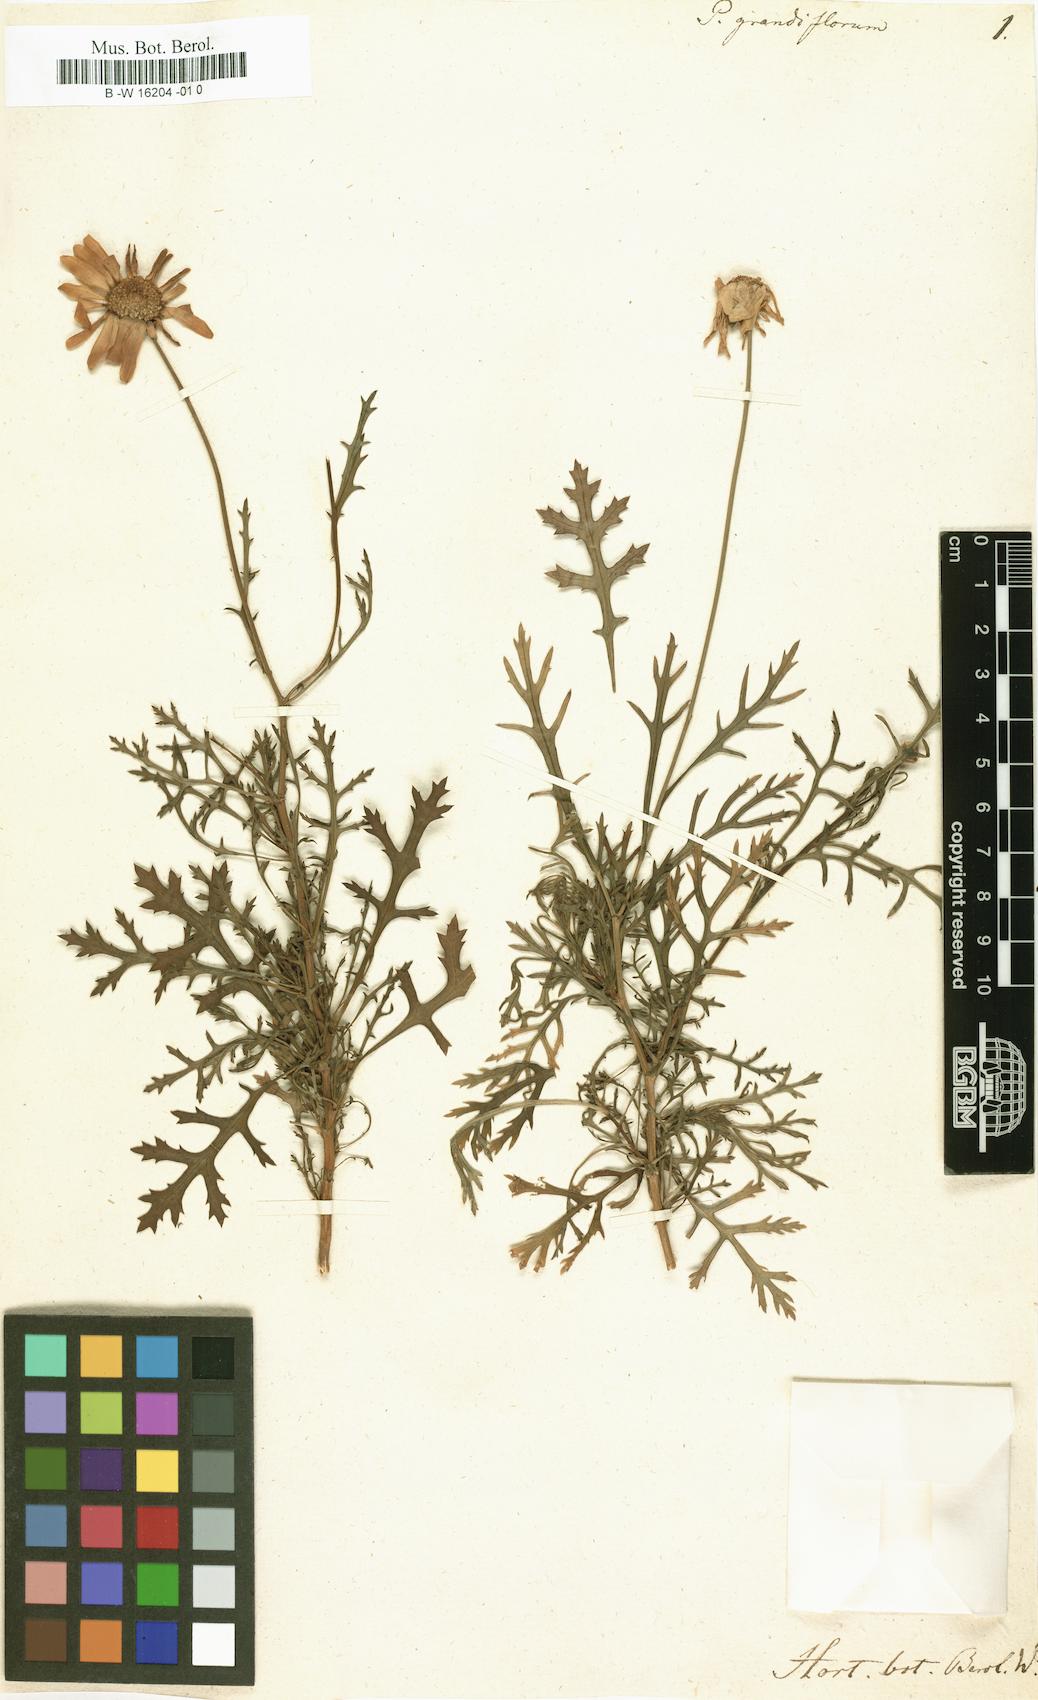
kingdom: Plantae
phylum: Tracheophyta
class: Magnoliopsida
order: Asterales
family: Asteraceae
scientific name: Asteraceae
